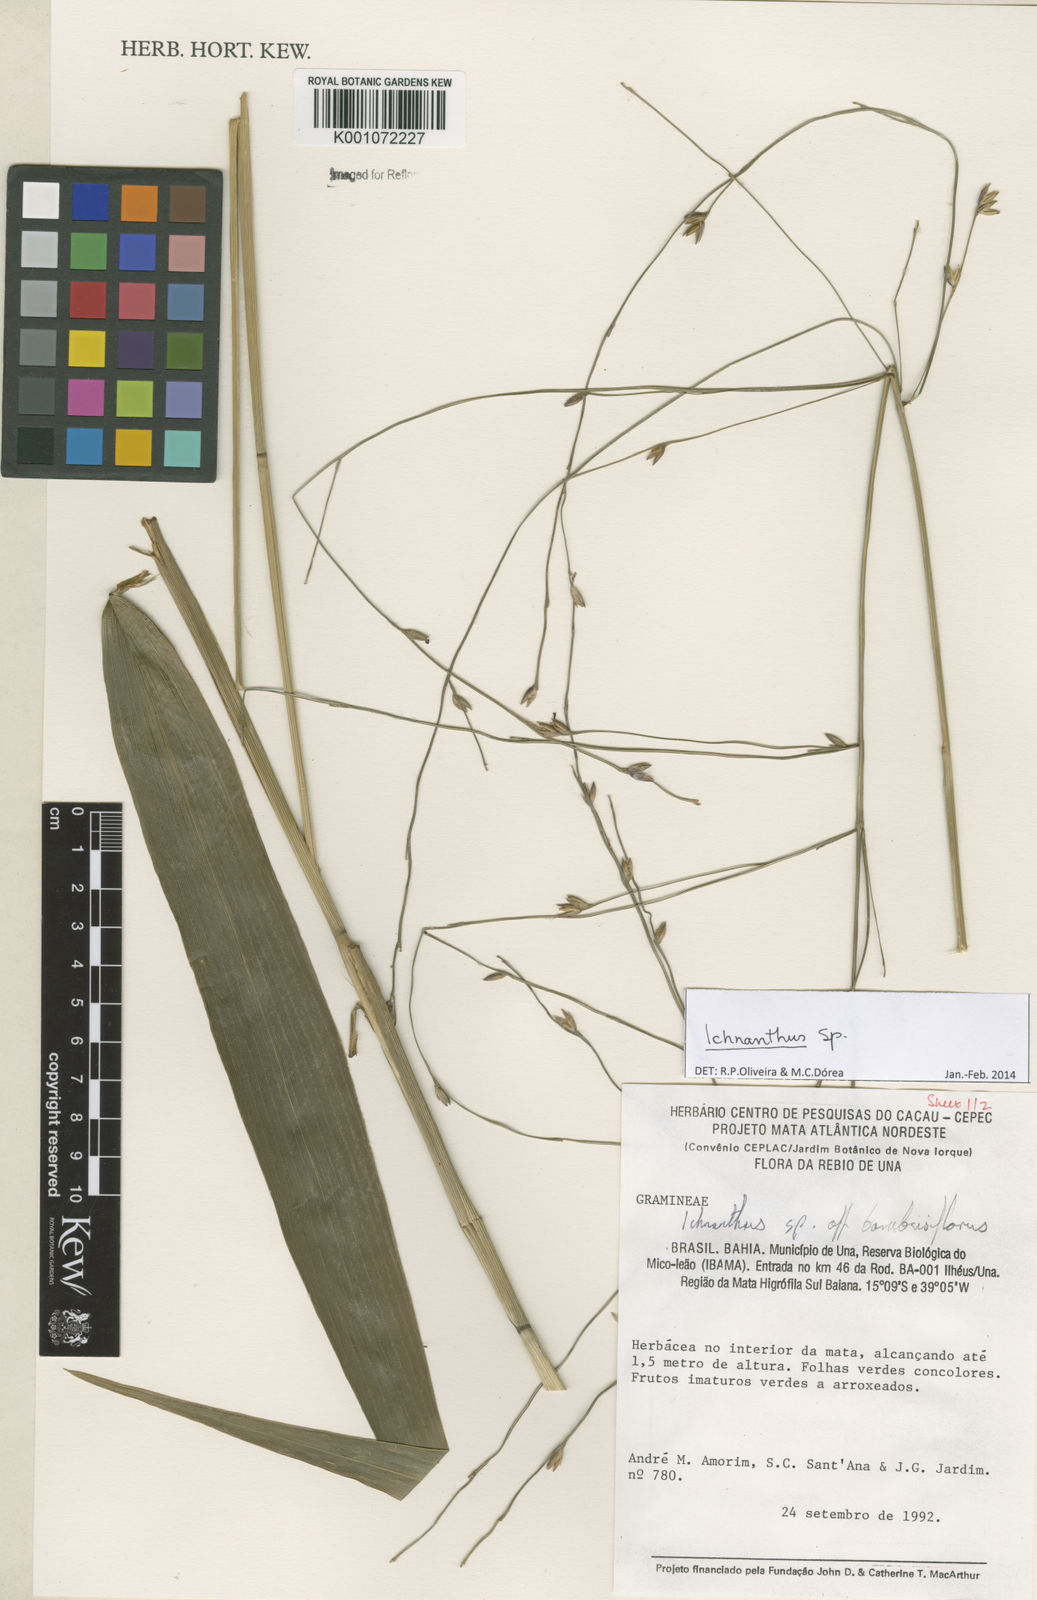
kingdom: Plantae
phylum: Tracheophyta
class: Liliopsida
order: Poales
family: Poaceae
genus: Ichnanthus
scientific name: Ichnanthus
